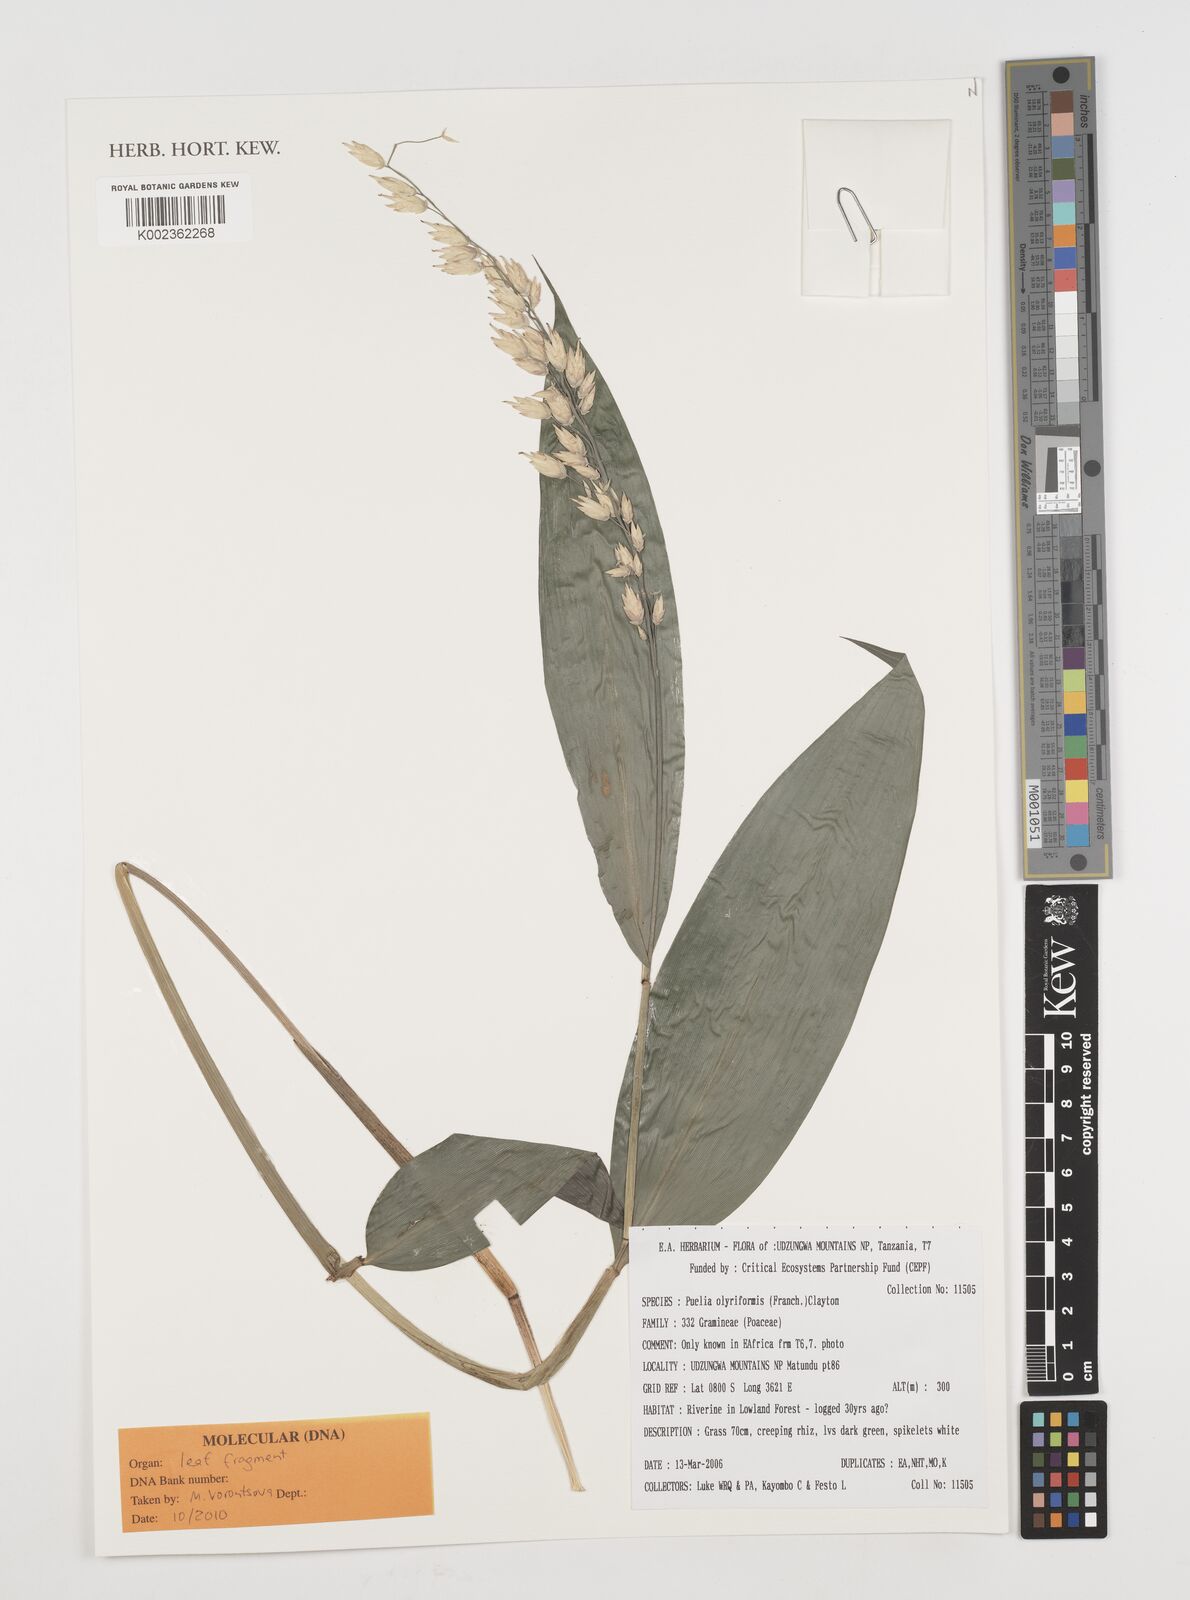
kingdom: Plantae
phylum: Tracheophyta
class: Liliopsida
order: Poales
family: Poaceae
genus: Puelia
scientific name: Puelia olyriformis
